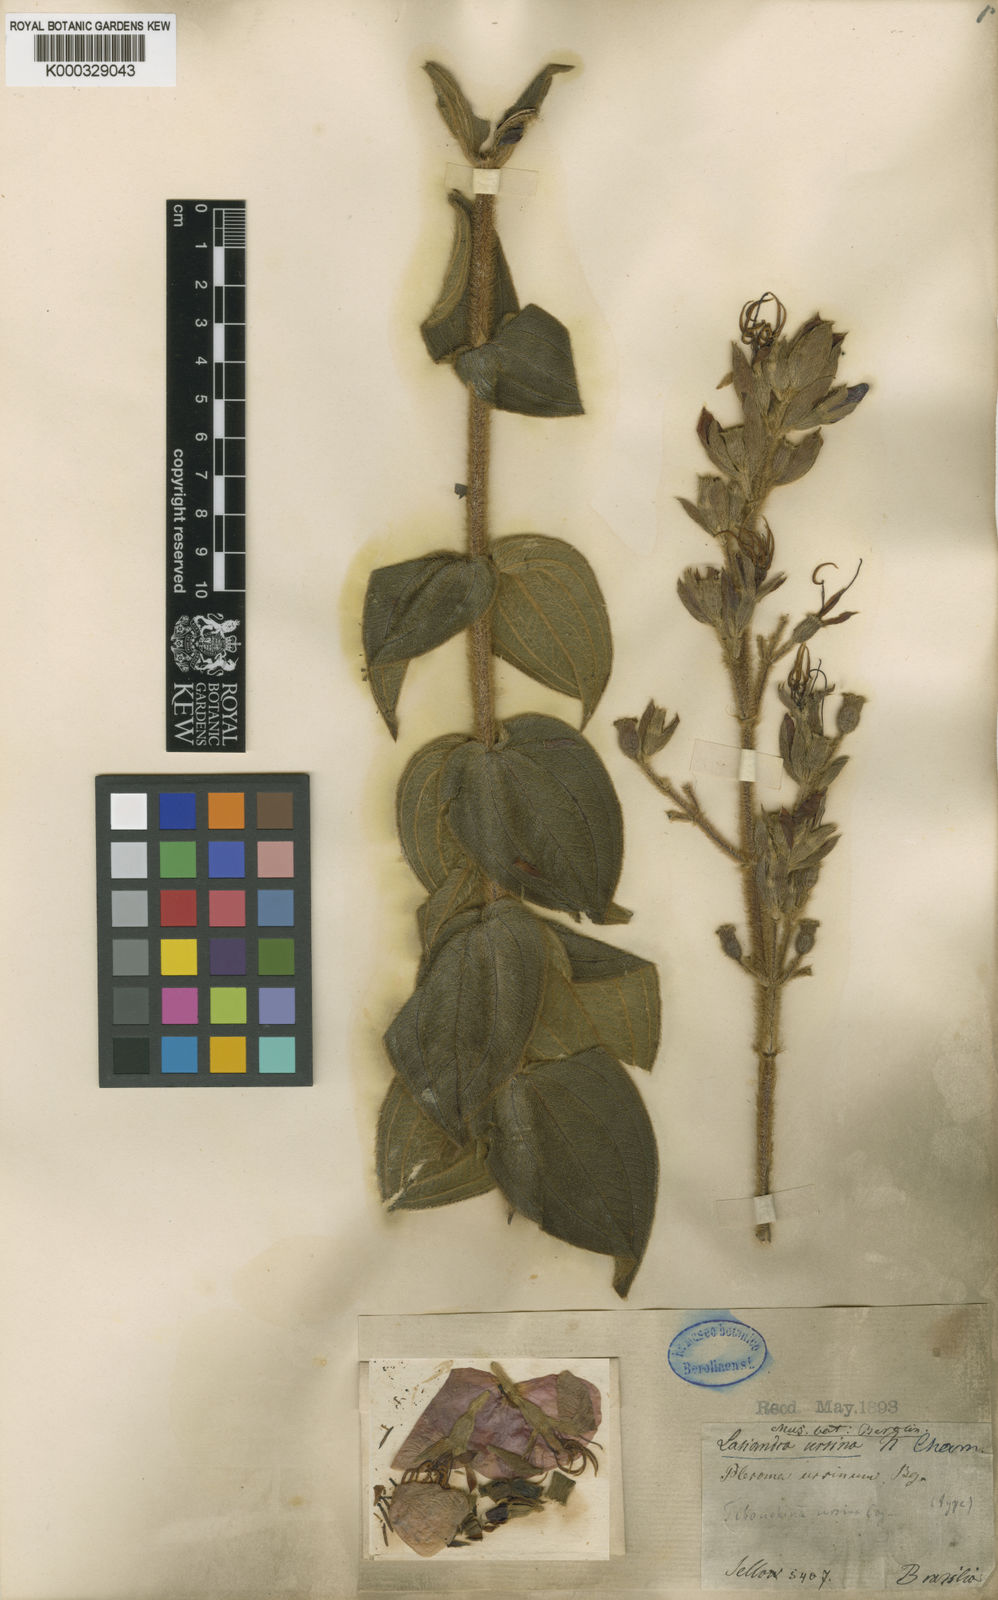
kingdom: Plantae
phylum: Tracheophyta
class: Magnoliopsida
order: Myrtales
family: Melastomataceae
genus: Pleroma
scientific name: Pleroma ursinum
